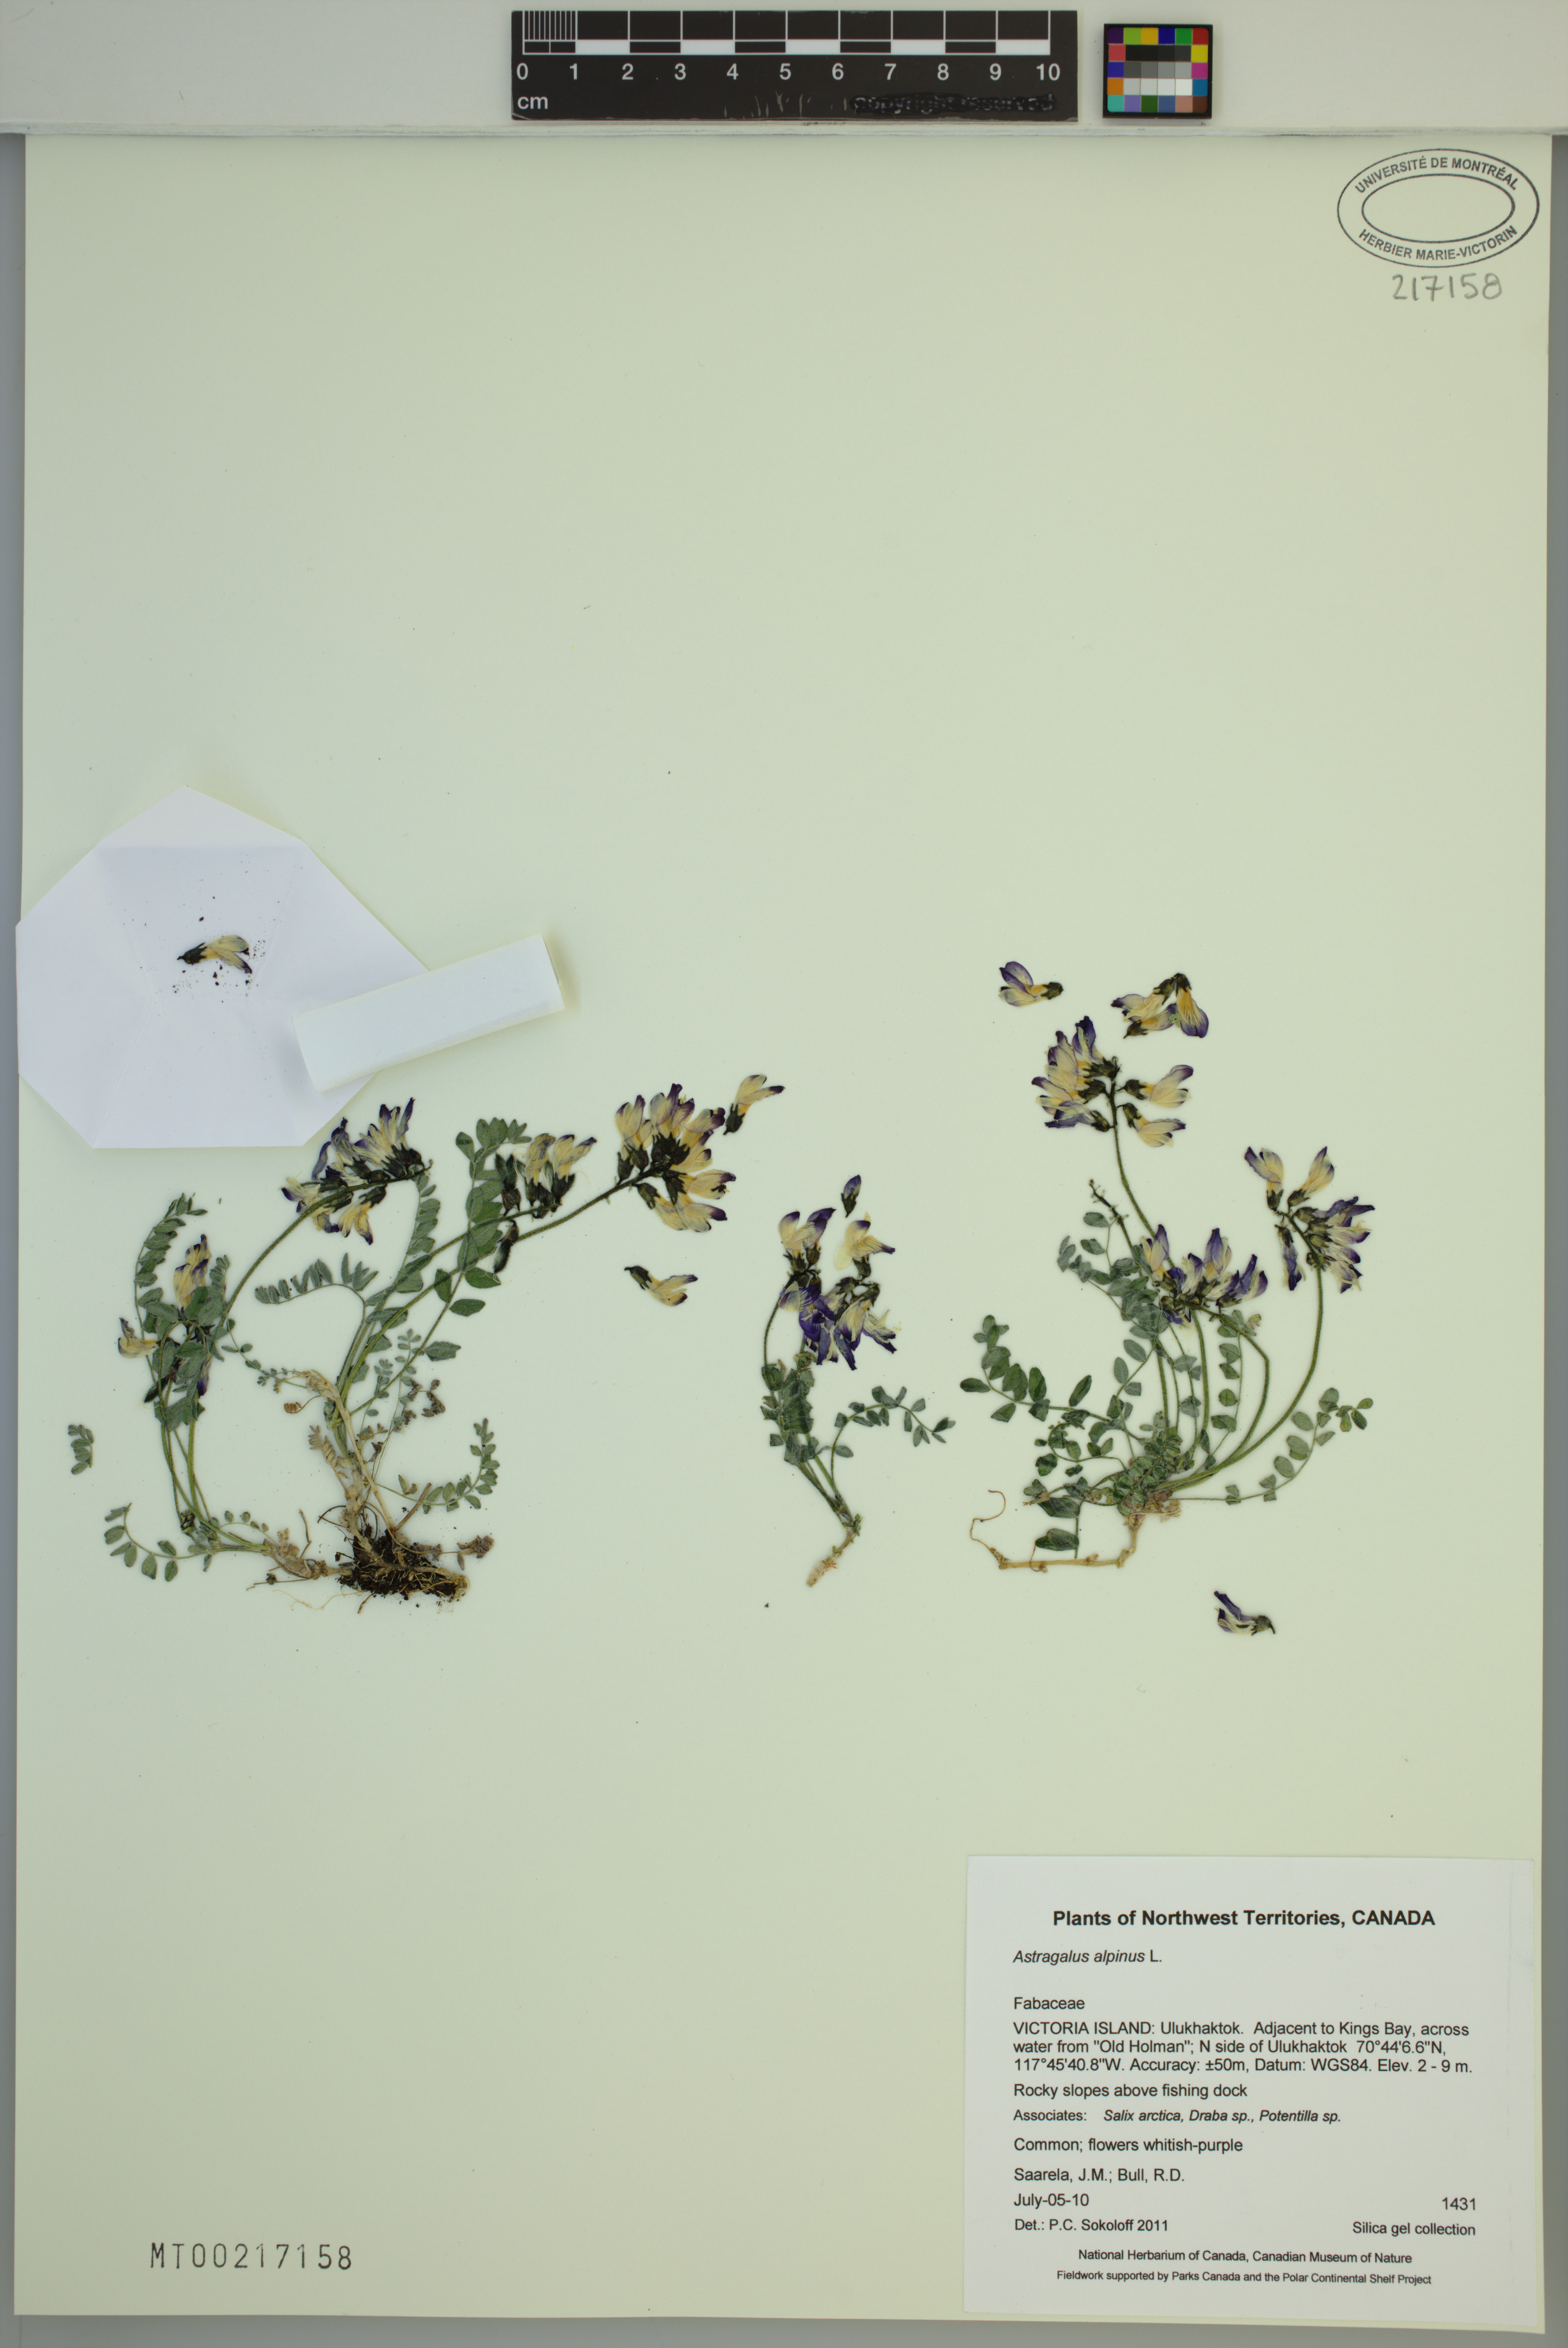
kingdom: Plantae
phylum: Tracheophyta
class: Magnoliopsida
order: Fabales
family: Fabaceae
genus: Astragalus
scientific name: Astragalus alpinus
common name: Alpine milk-vetch
